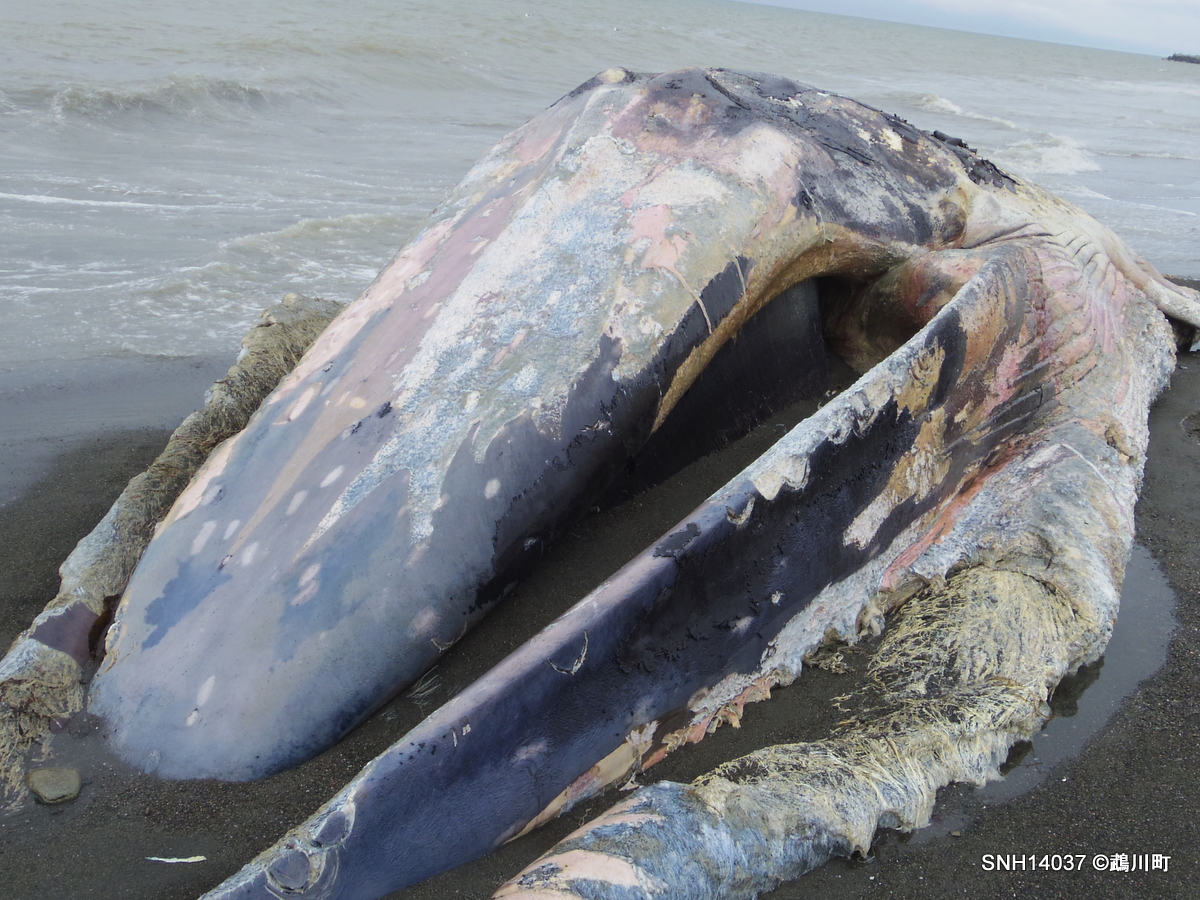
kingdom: Animalia
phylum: Chordata
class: Mammalia
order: Cetacea
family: Balaenopteridae
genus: Balaenoptera
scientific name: Balaenoptera physalus
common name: Fin whale
